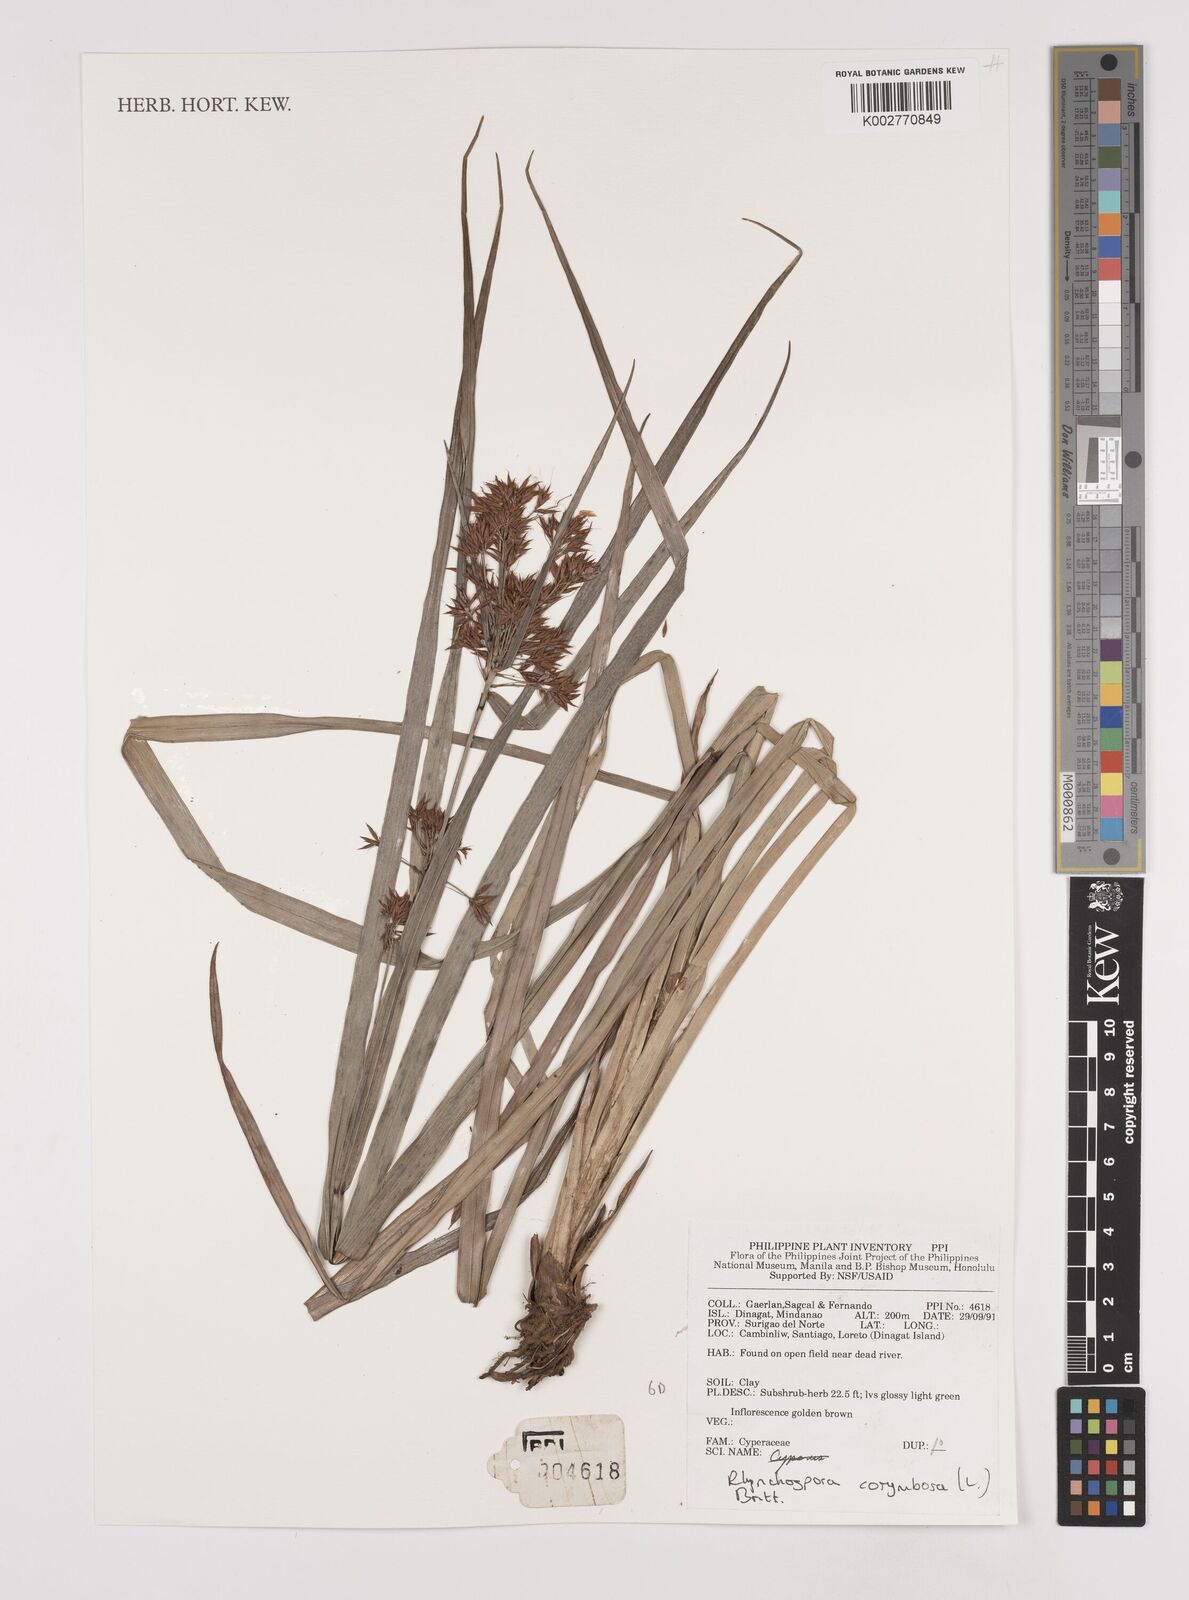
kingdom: Plantae
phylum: Tracheophyta
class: Liliopsida
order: Poales
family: Cyperaceae
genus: Rhynchospora
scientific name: Rhynchospora corymbosa
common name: Golden beak sedge
